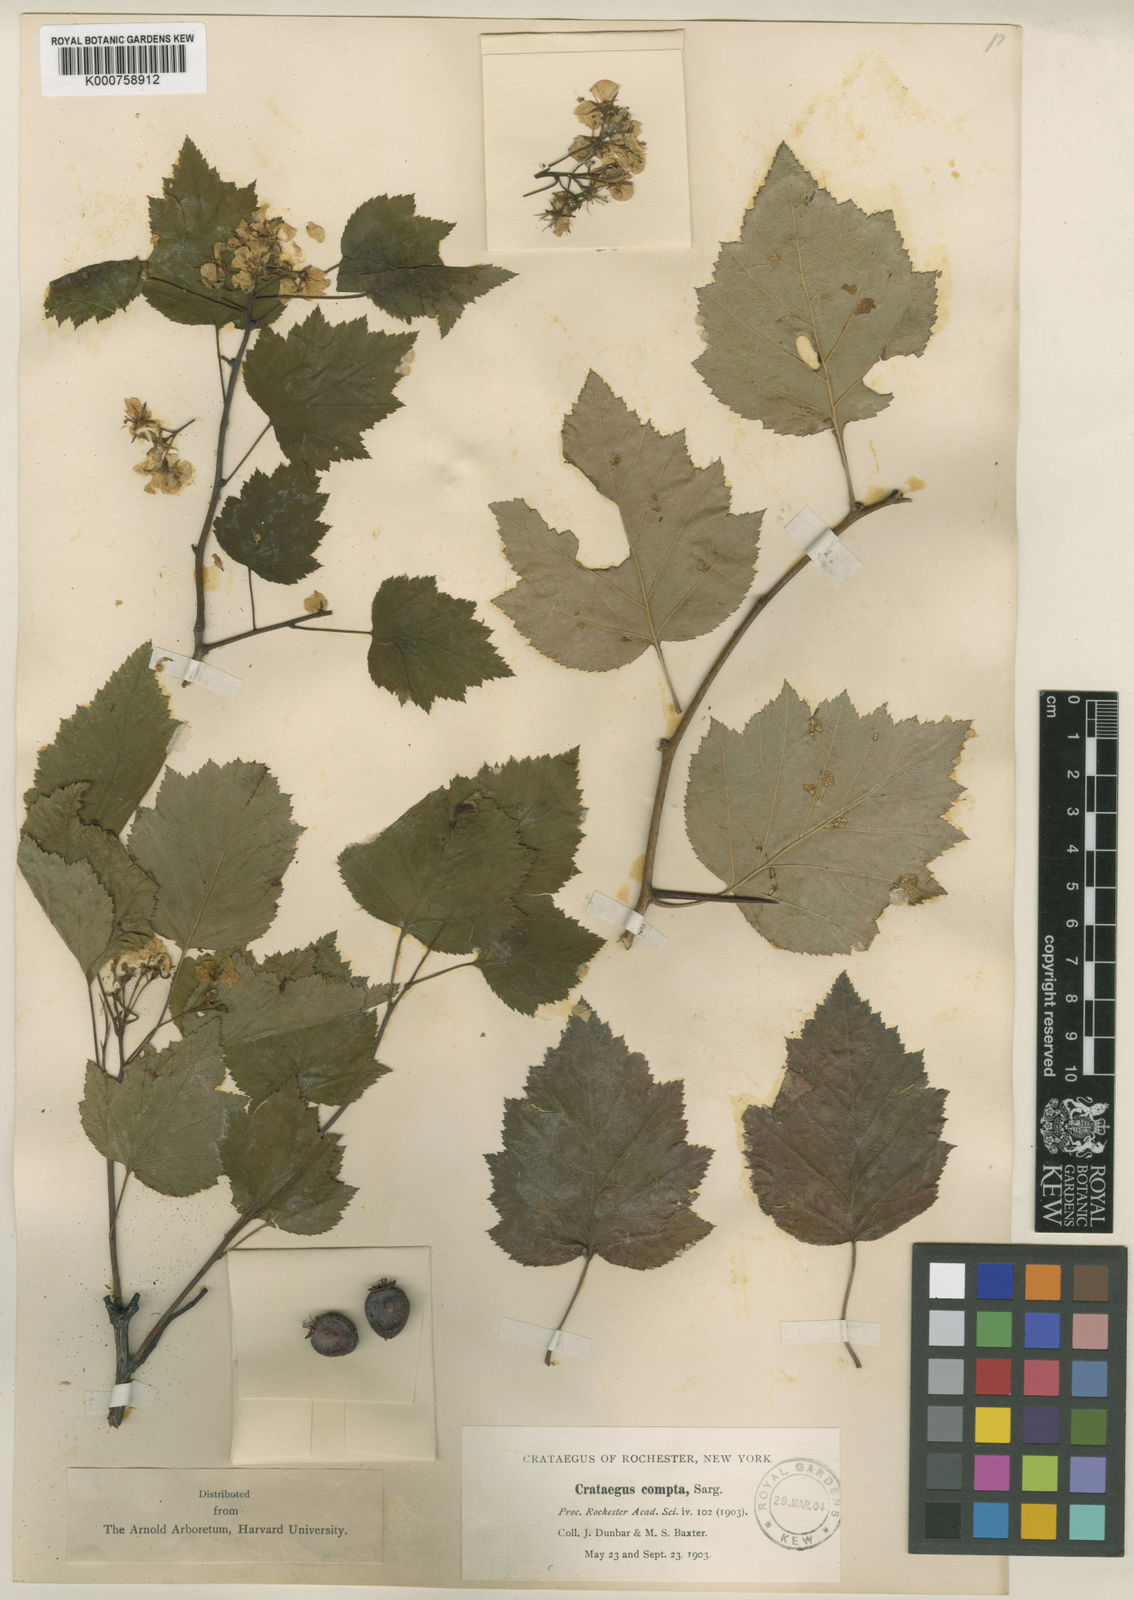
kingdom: Plantae
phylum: Tracheophyta
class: Magnoliopsida
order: Rosales
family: Rosaceae
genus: Crataegus
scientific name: Crataegus allecta
